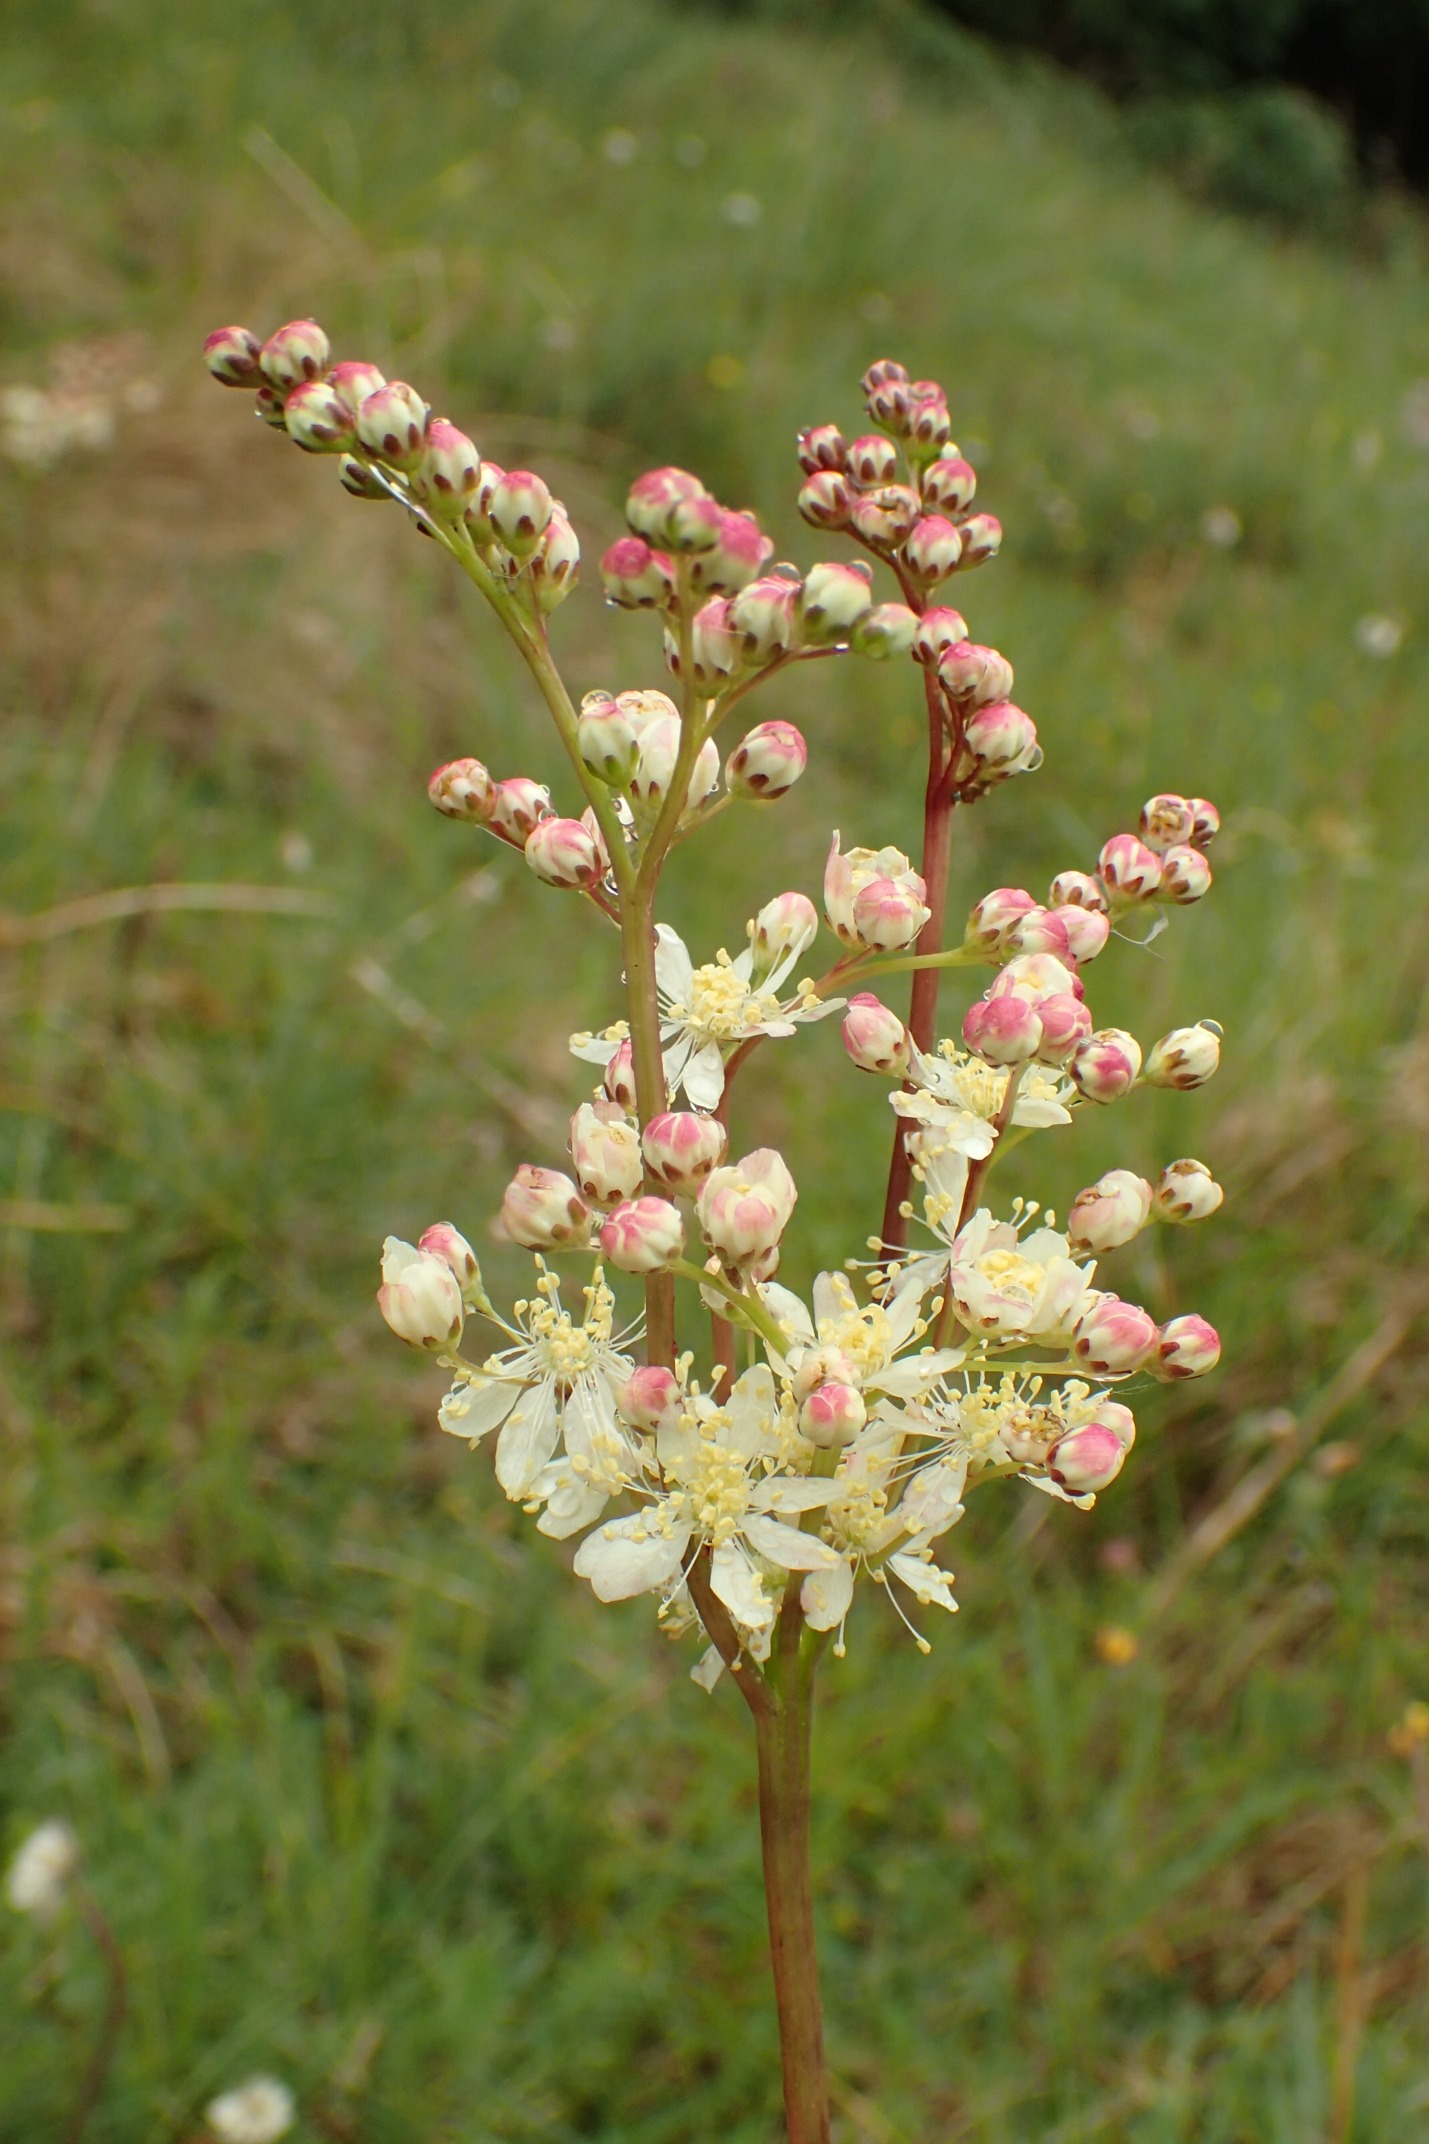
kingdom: Plantae
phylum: Tracheophyta
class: Magnoliopsida
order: Rosales
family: Rosaceae
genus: Filipendula
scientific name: Filipendula vulgaris
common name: Knoldet mjødurt
